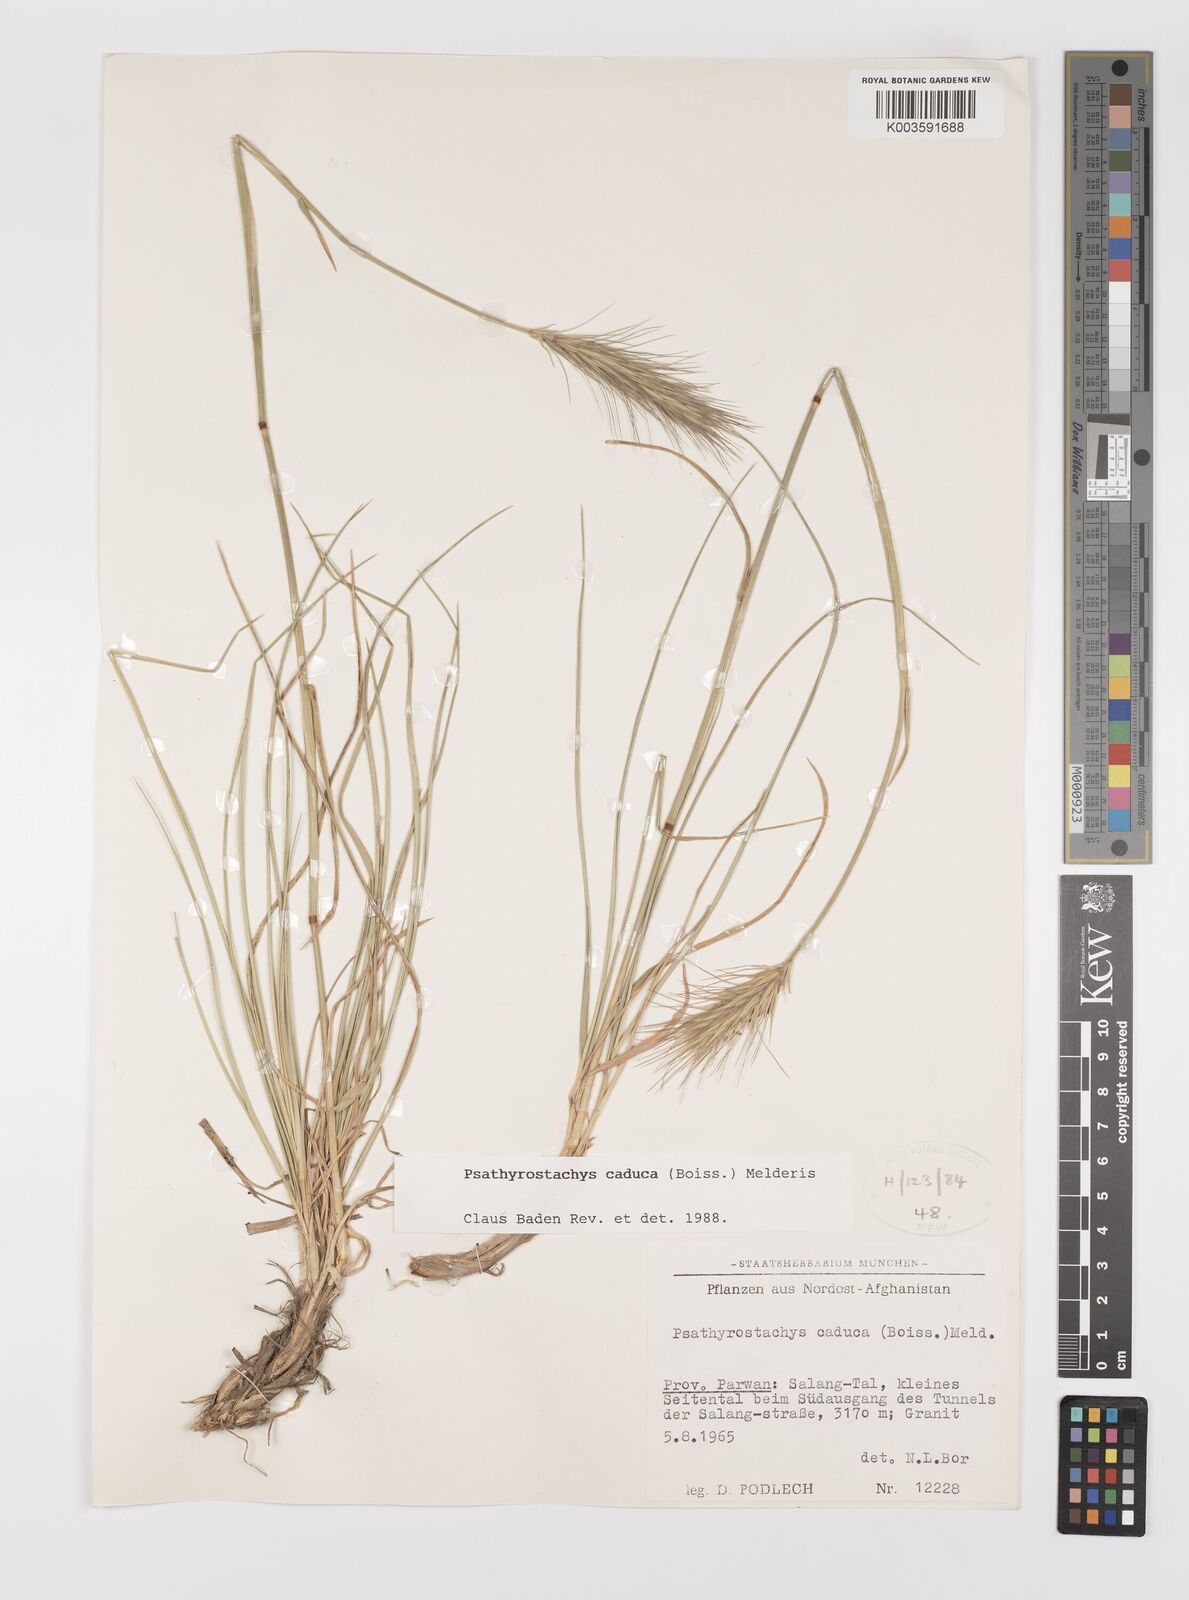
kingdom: Plantae
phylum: Tracheophyta
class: Liliopsida
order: Poales
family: Poaceae
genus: Psathyrostachys
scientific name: Psathyrostachys caduca
